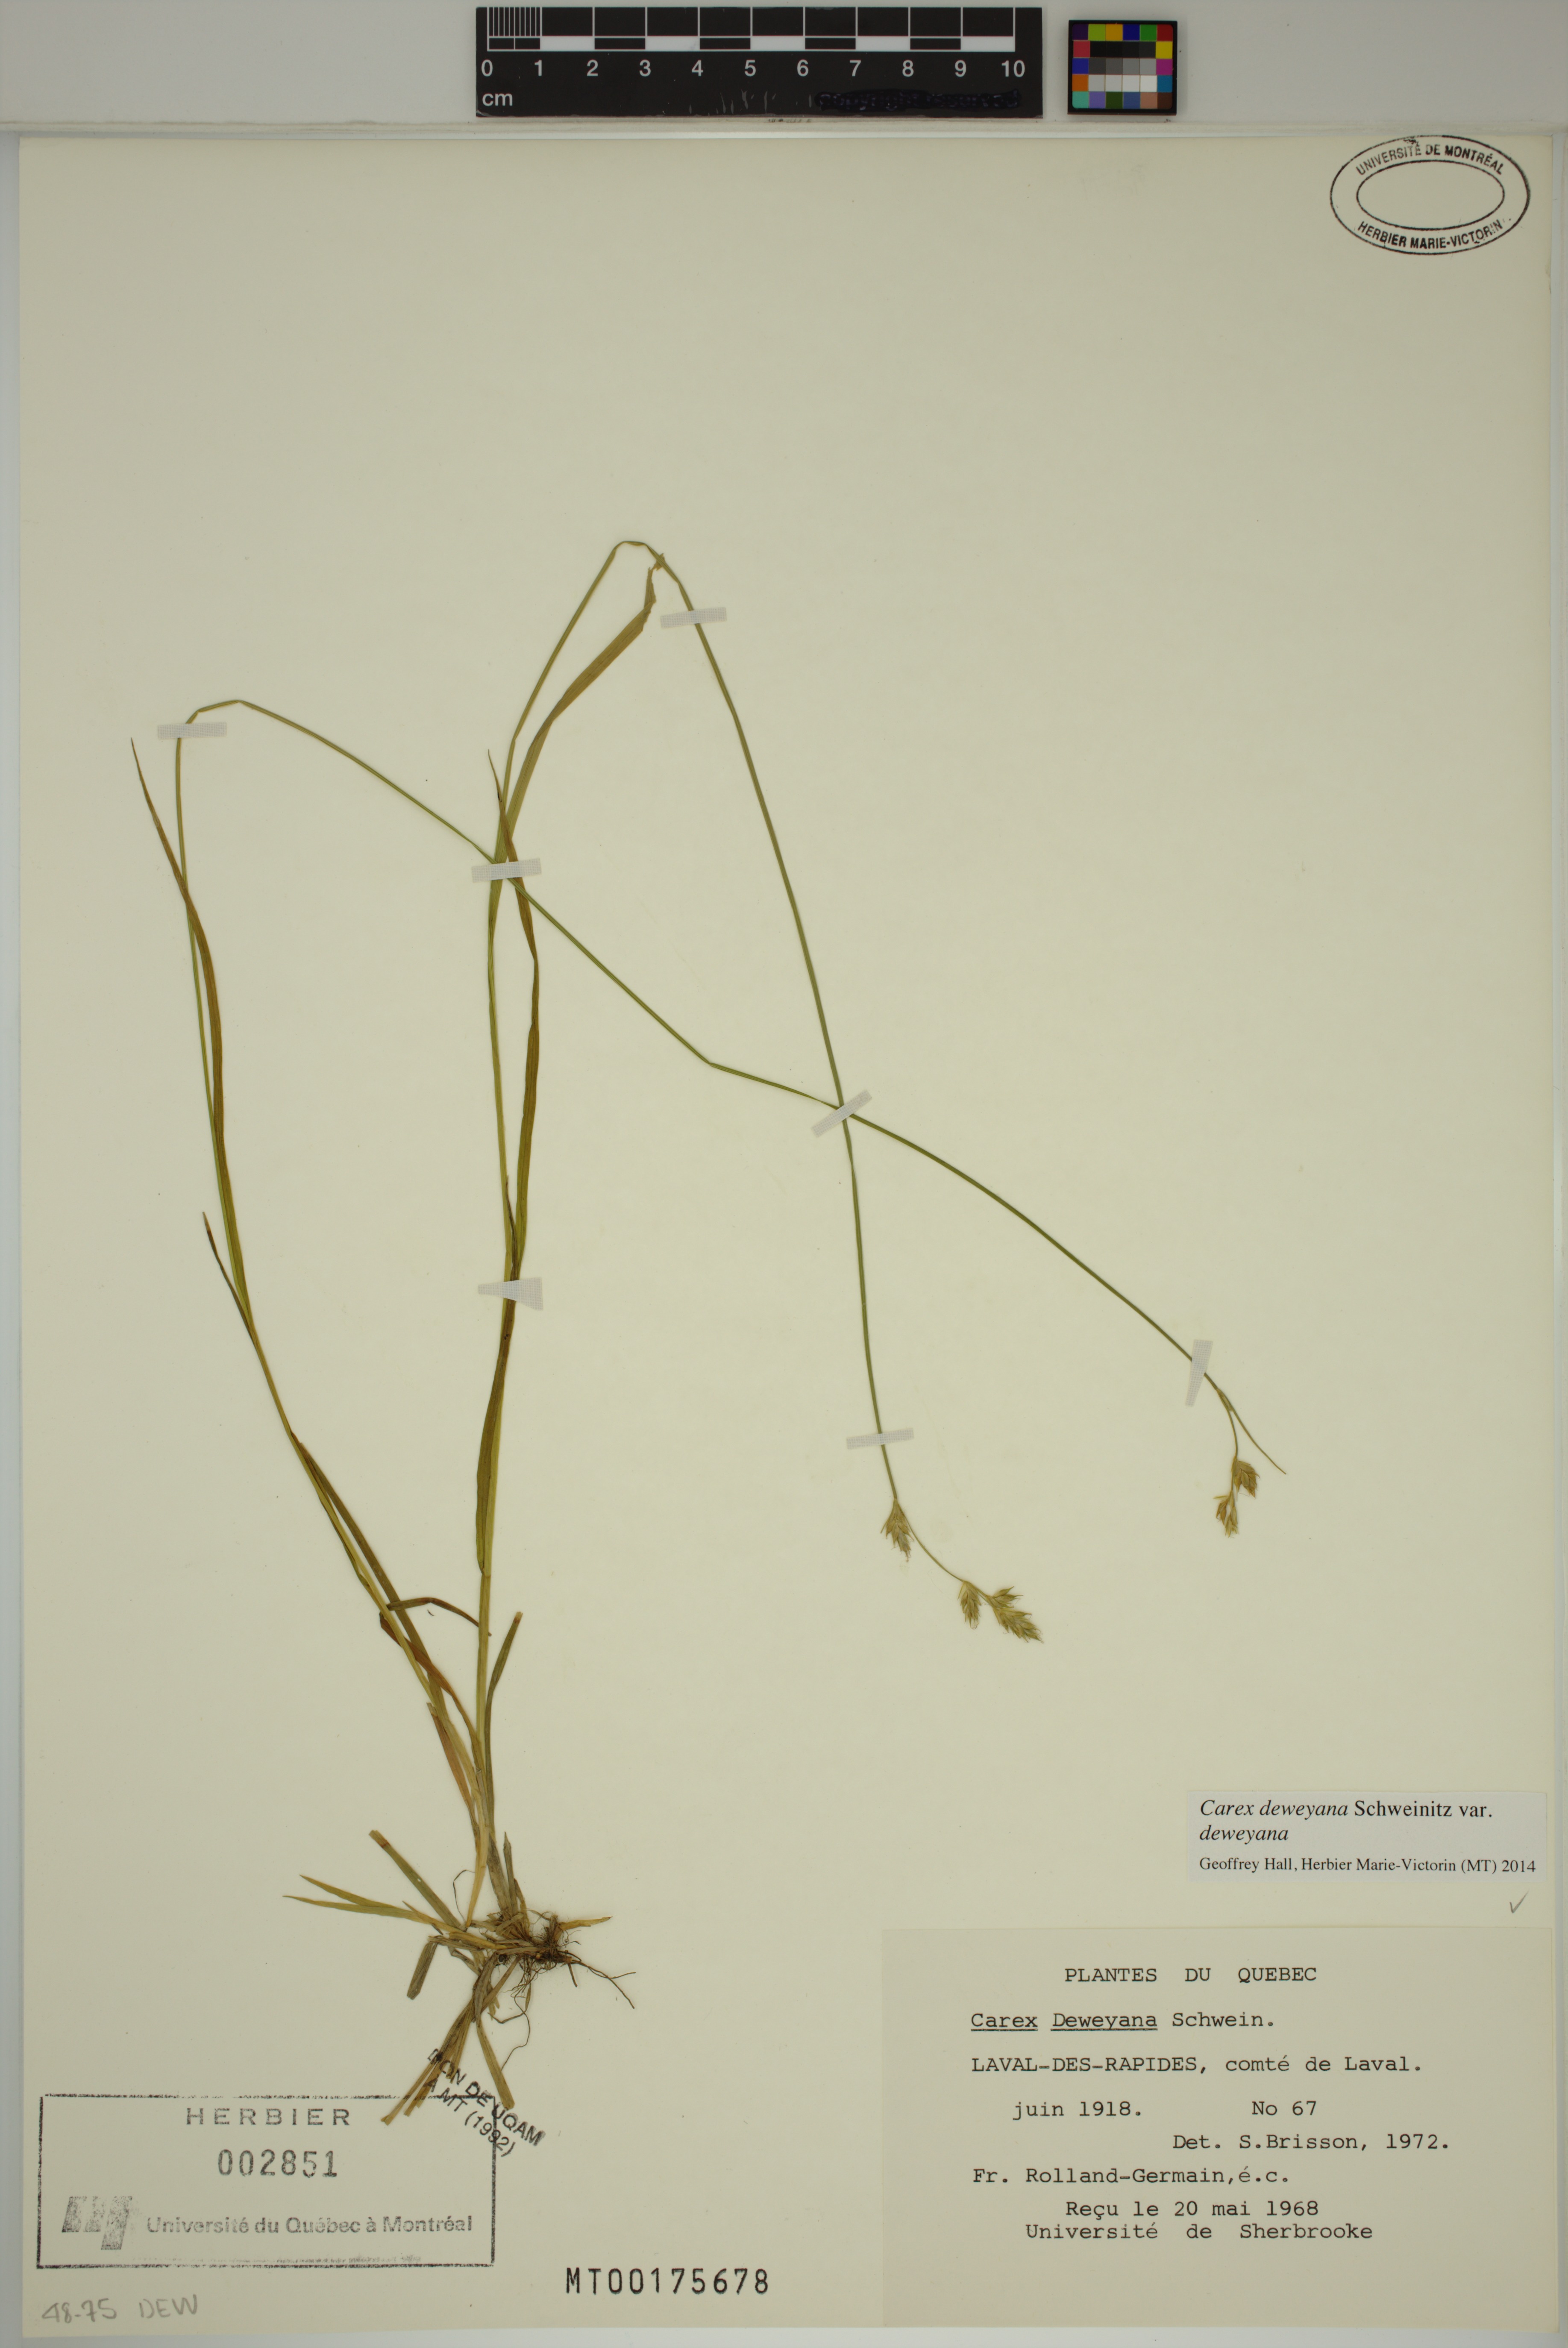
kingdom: Plantae
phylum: Tracheophyta
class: Liliopsida
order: Poales
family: Cyperaceae
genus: Carex
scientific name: Carex deweyana
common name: Dewey's sedge
